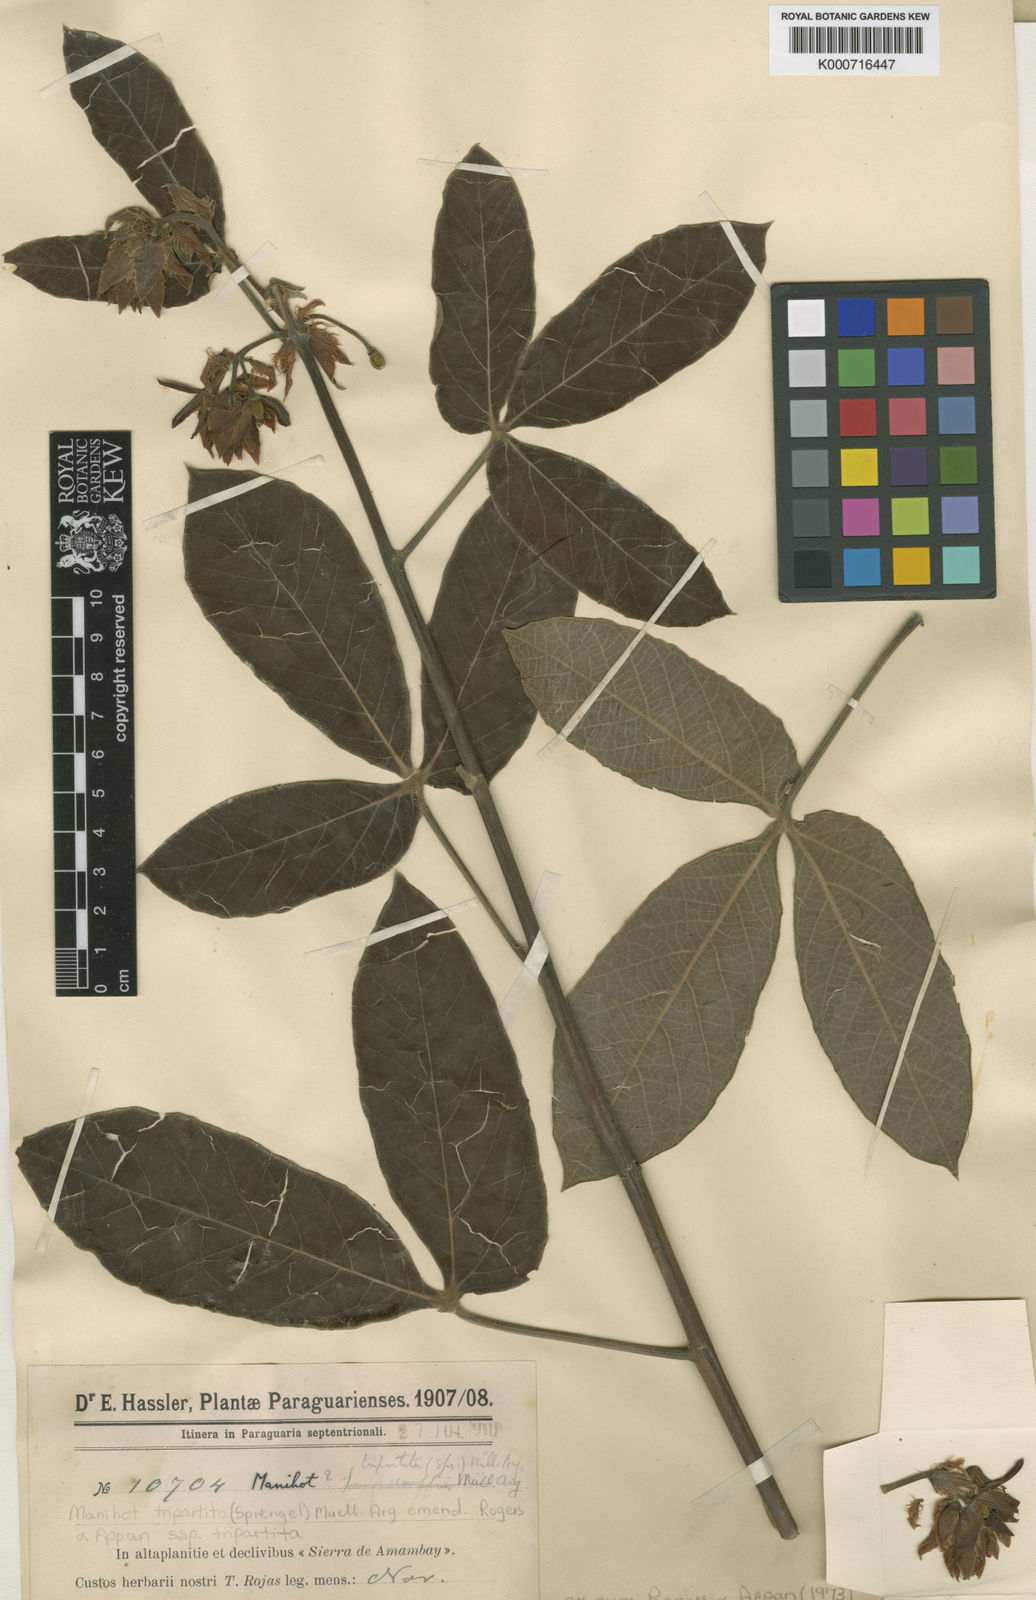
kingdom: Plantae
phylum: Tracheophyta
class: Magnoliopsida
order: Malpighiales
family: Euphorbiaceae
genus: Manihot
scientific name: Manihot
